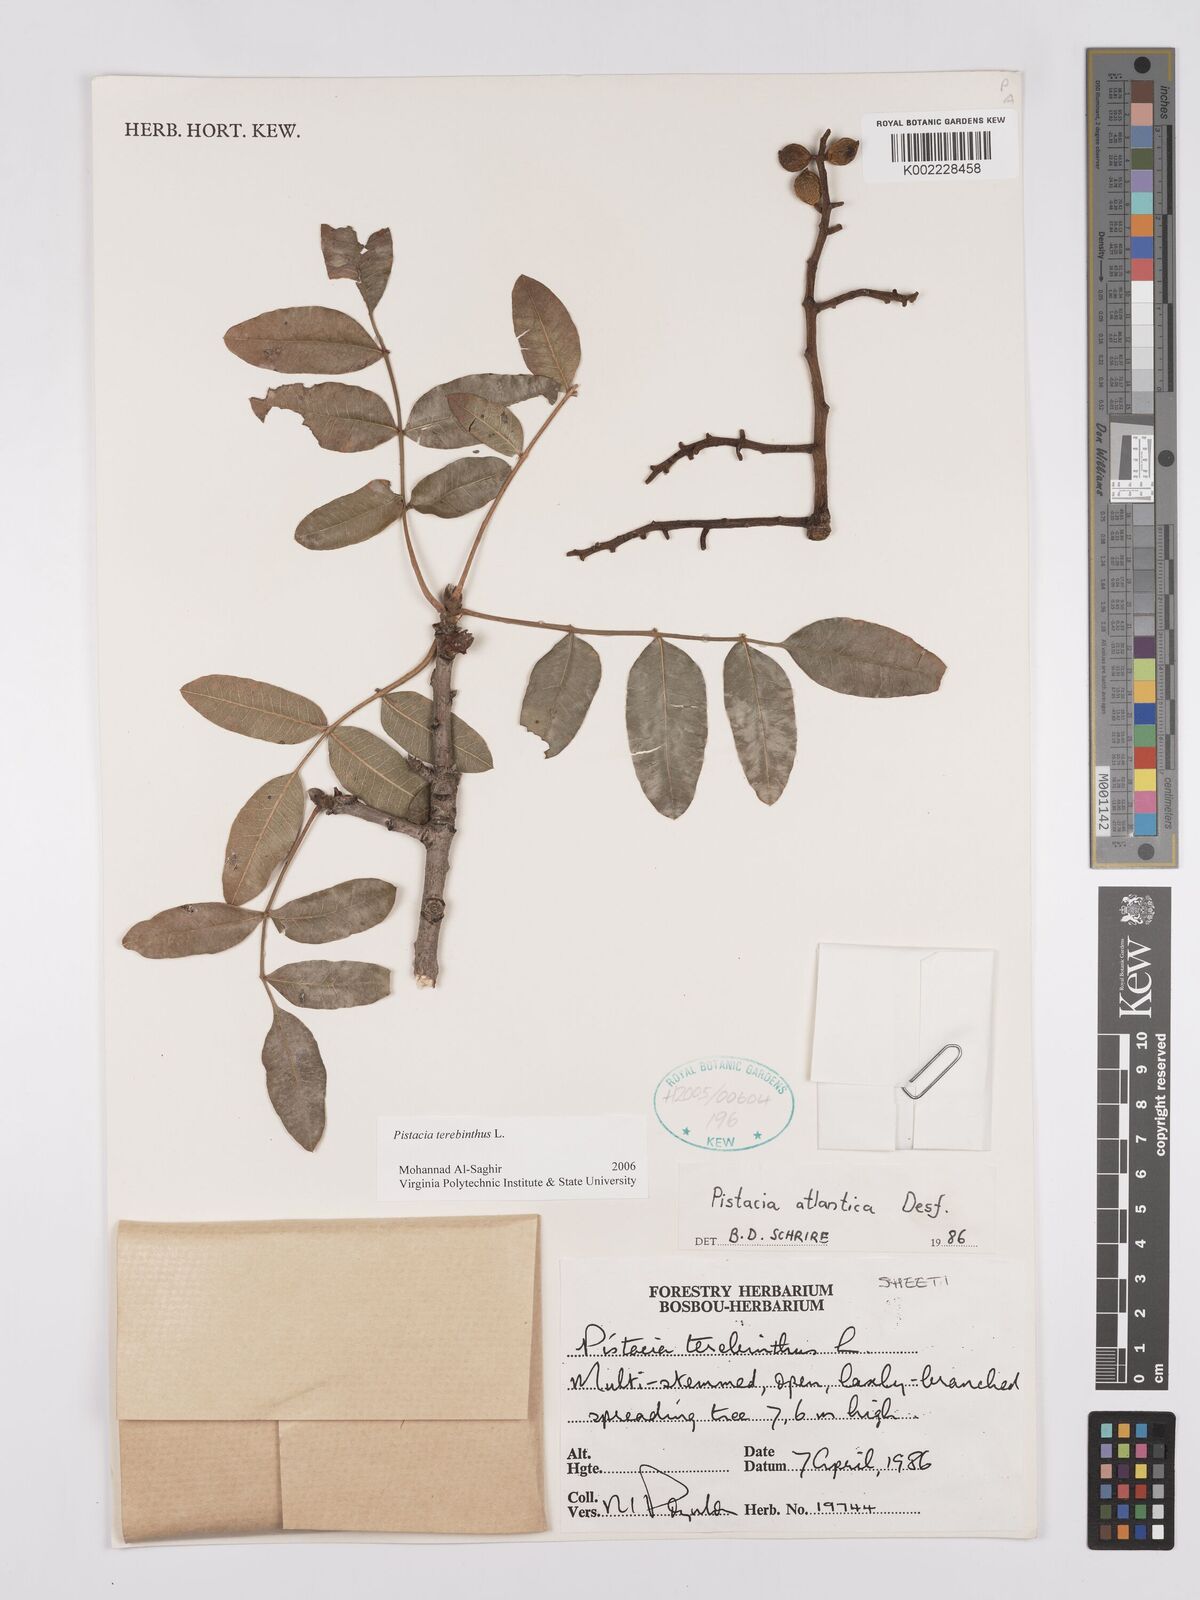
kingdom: Plantae
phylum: Tracheophyta
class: Magnoliopsida
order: Sapindales
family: Anacardiaceae
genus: Pistacia
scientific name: Pistacia terebinthus
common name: Terebinth
